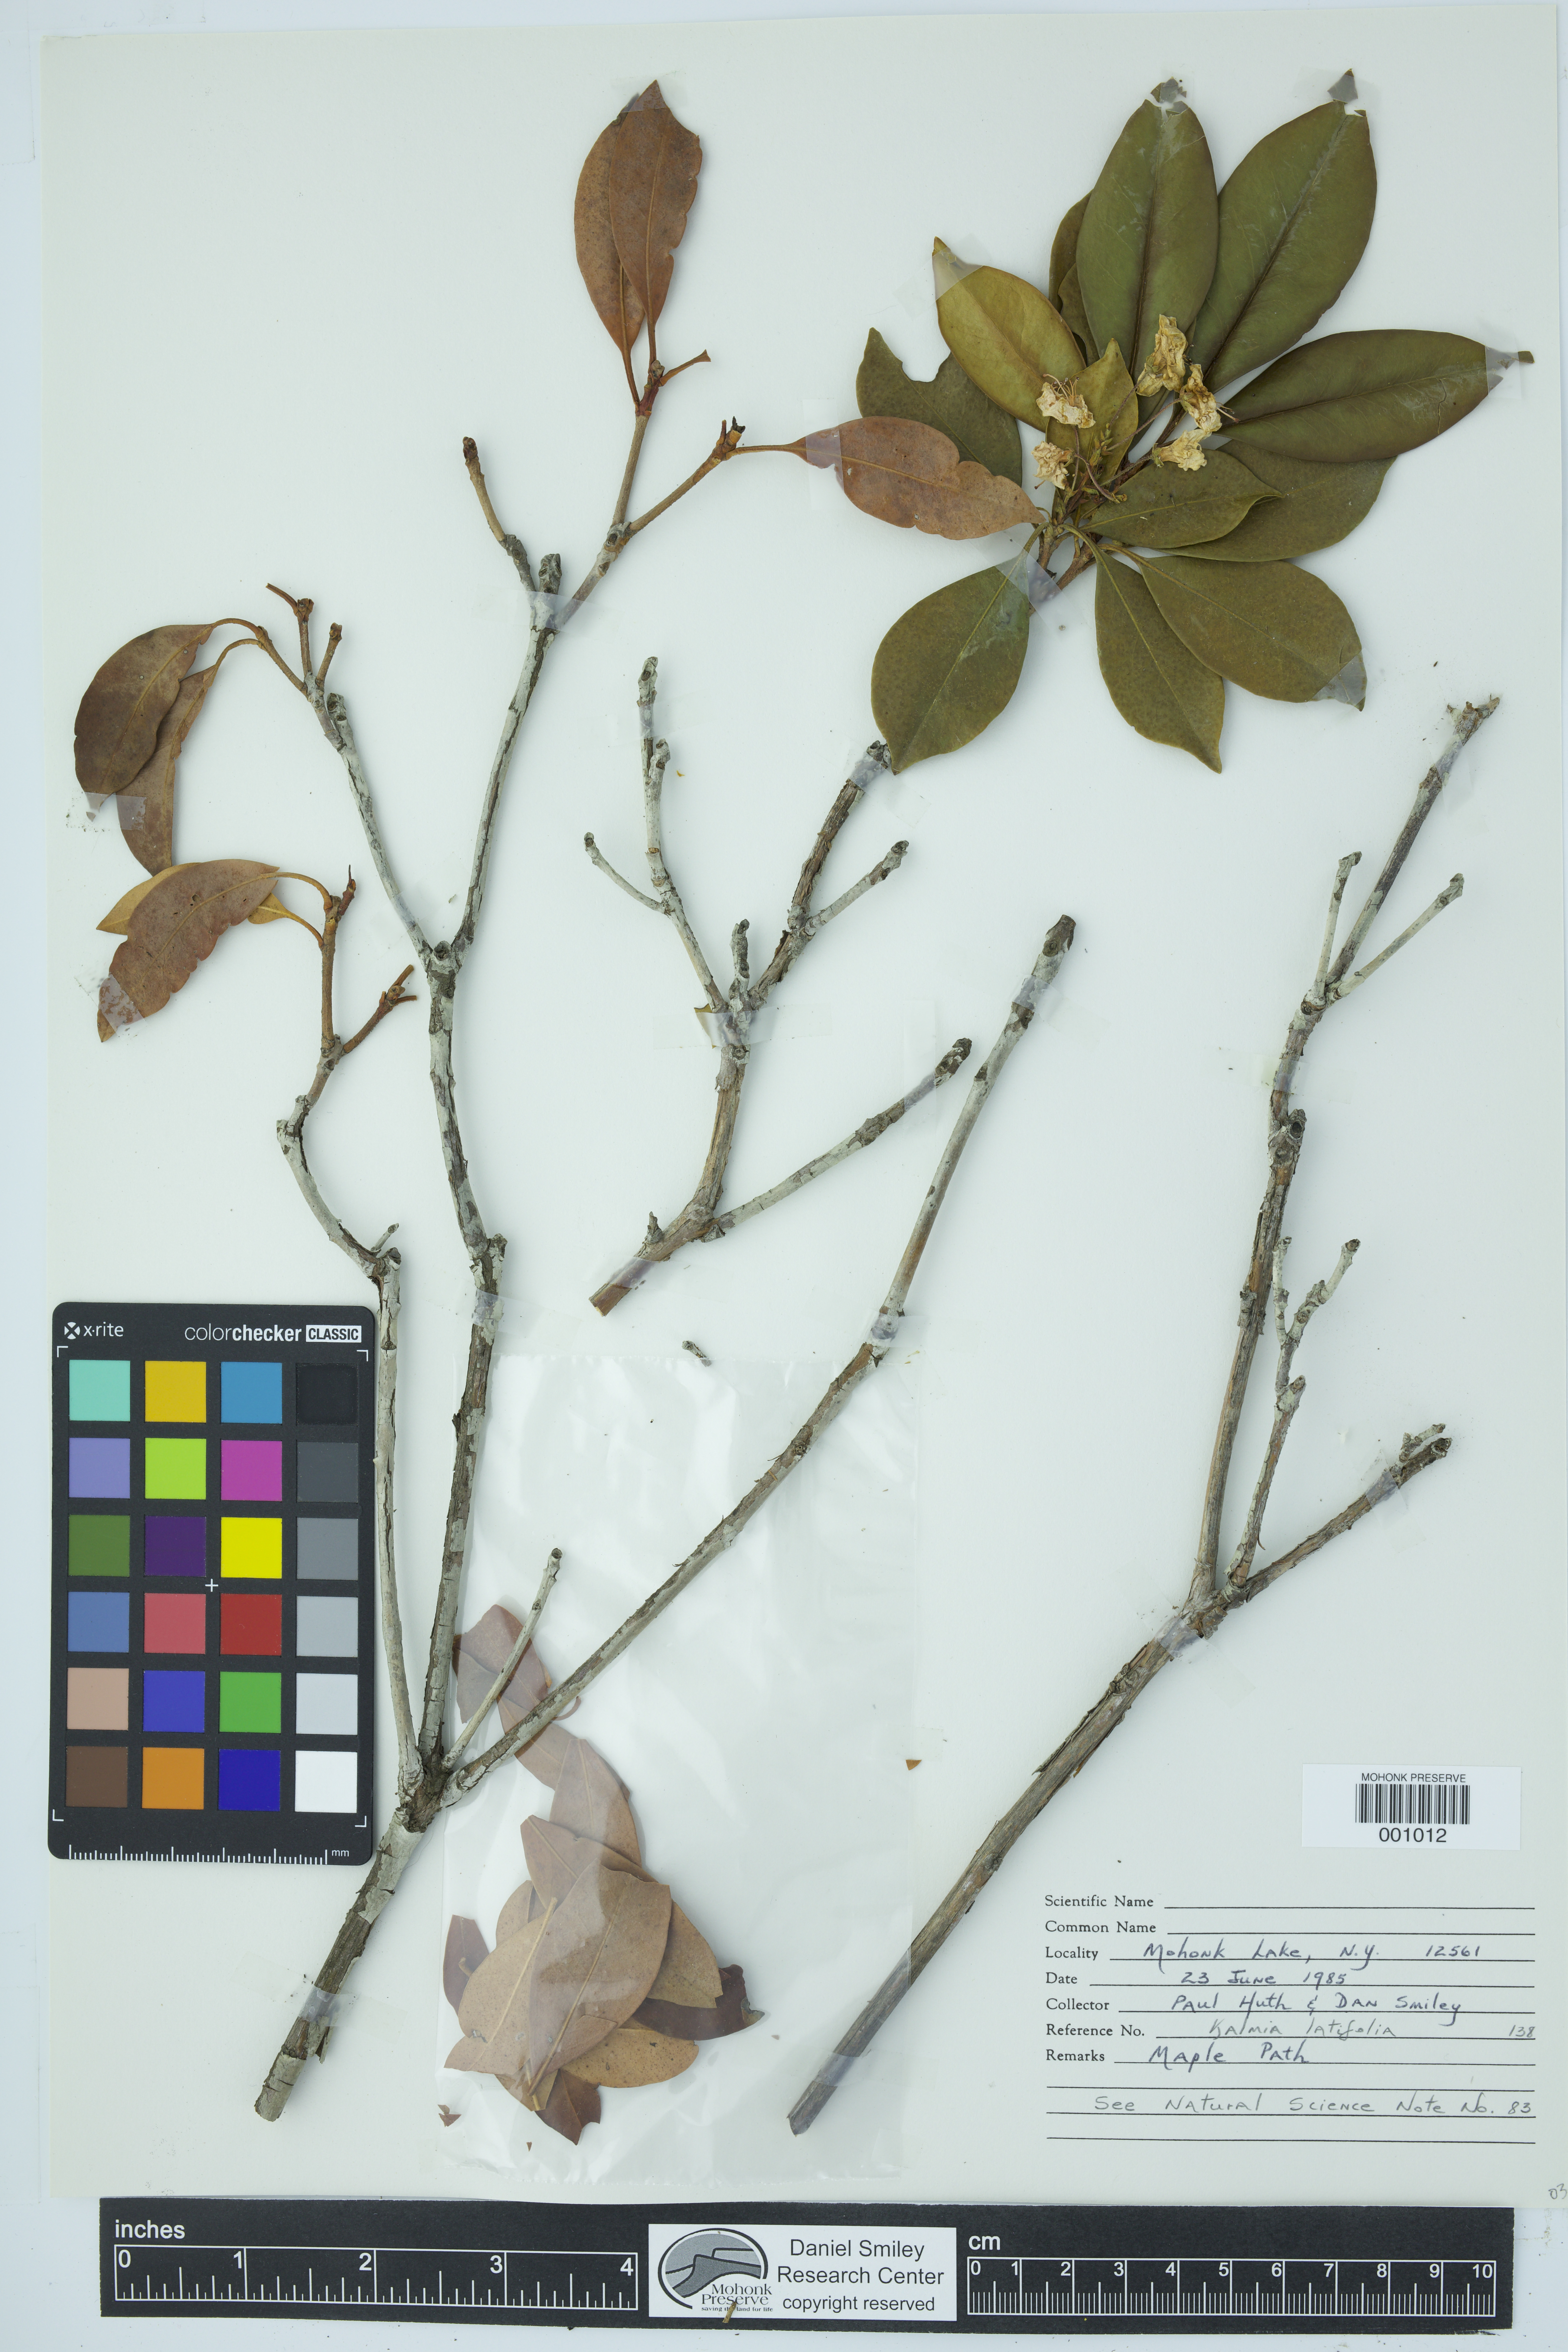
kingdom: Plantae
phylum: Tracheophyta
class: Magnoliopsida
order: Ericales
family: Ericaceae
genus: Kalmia
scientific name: Kalmia latifolia
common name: Mountain-laurel
